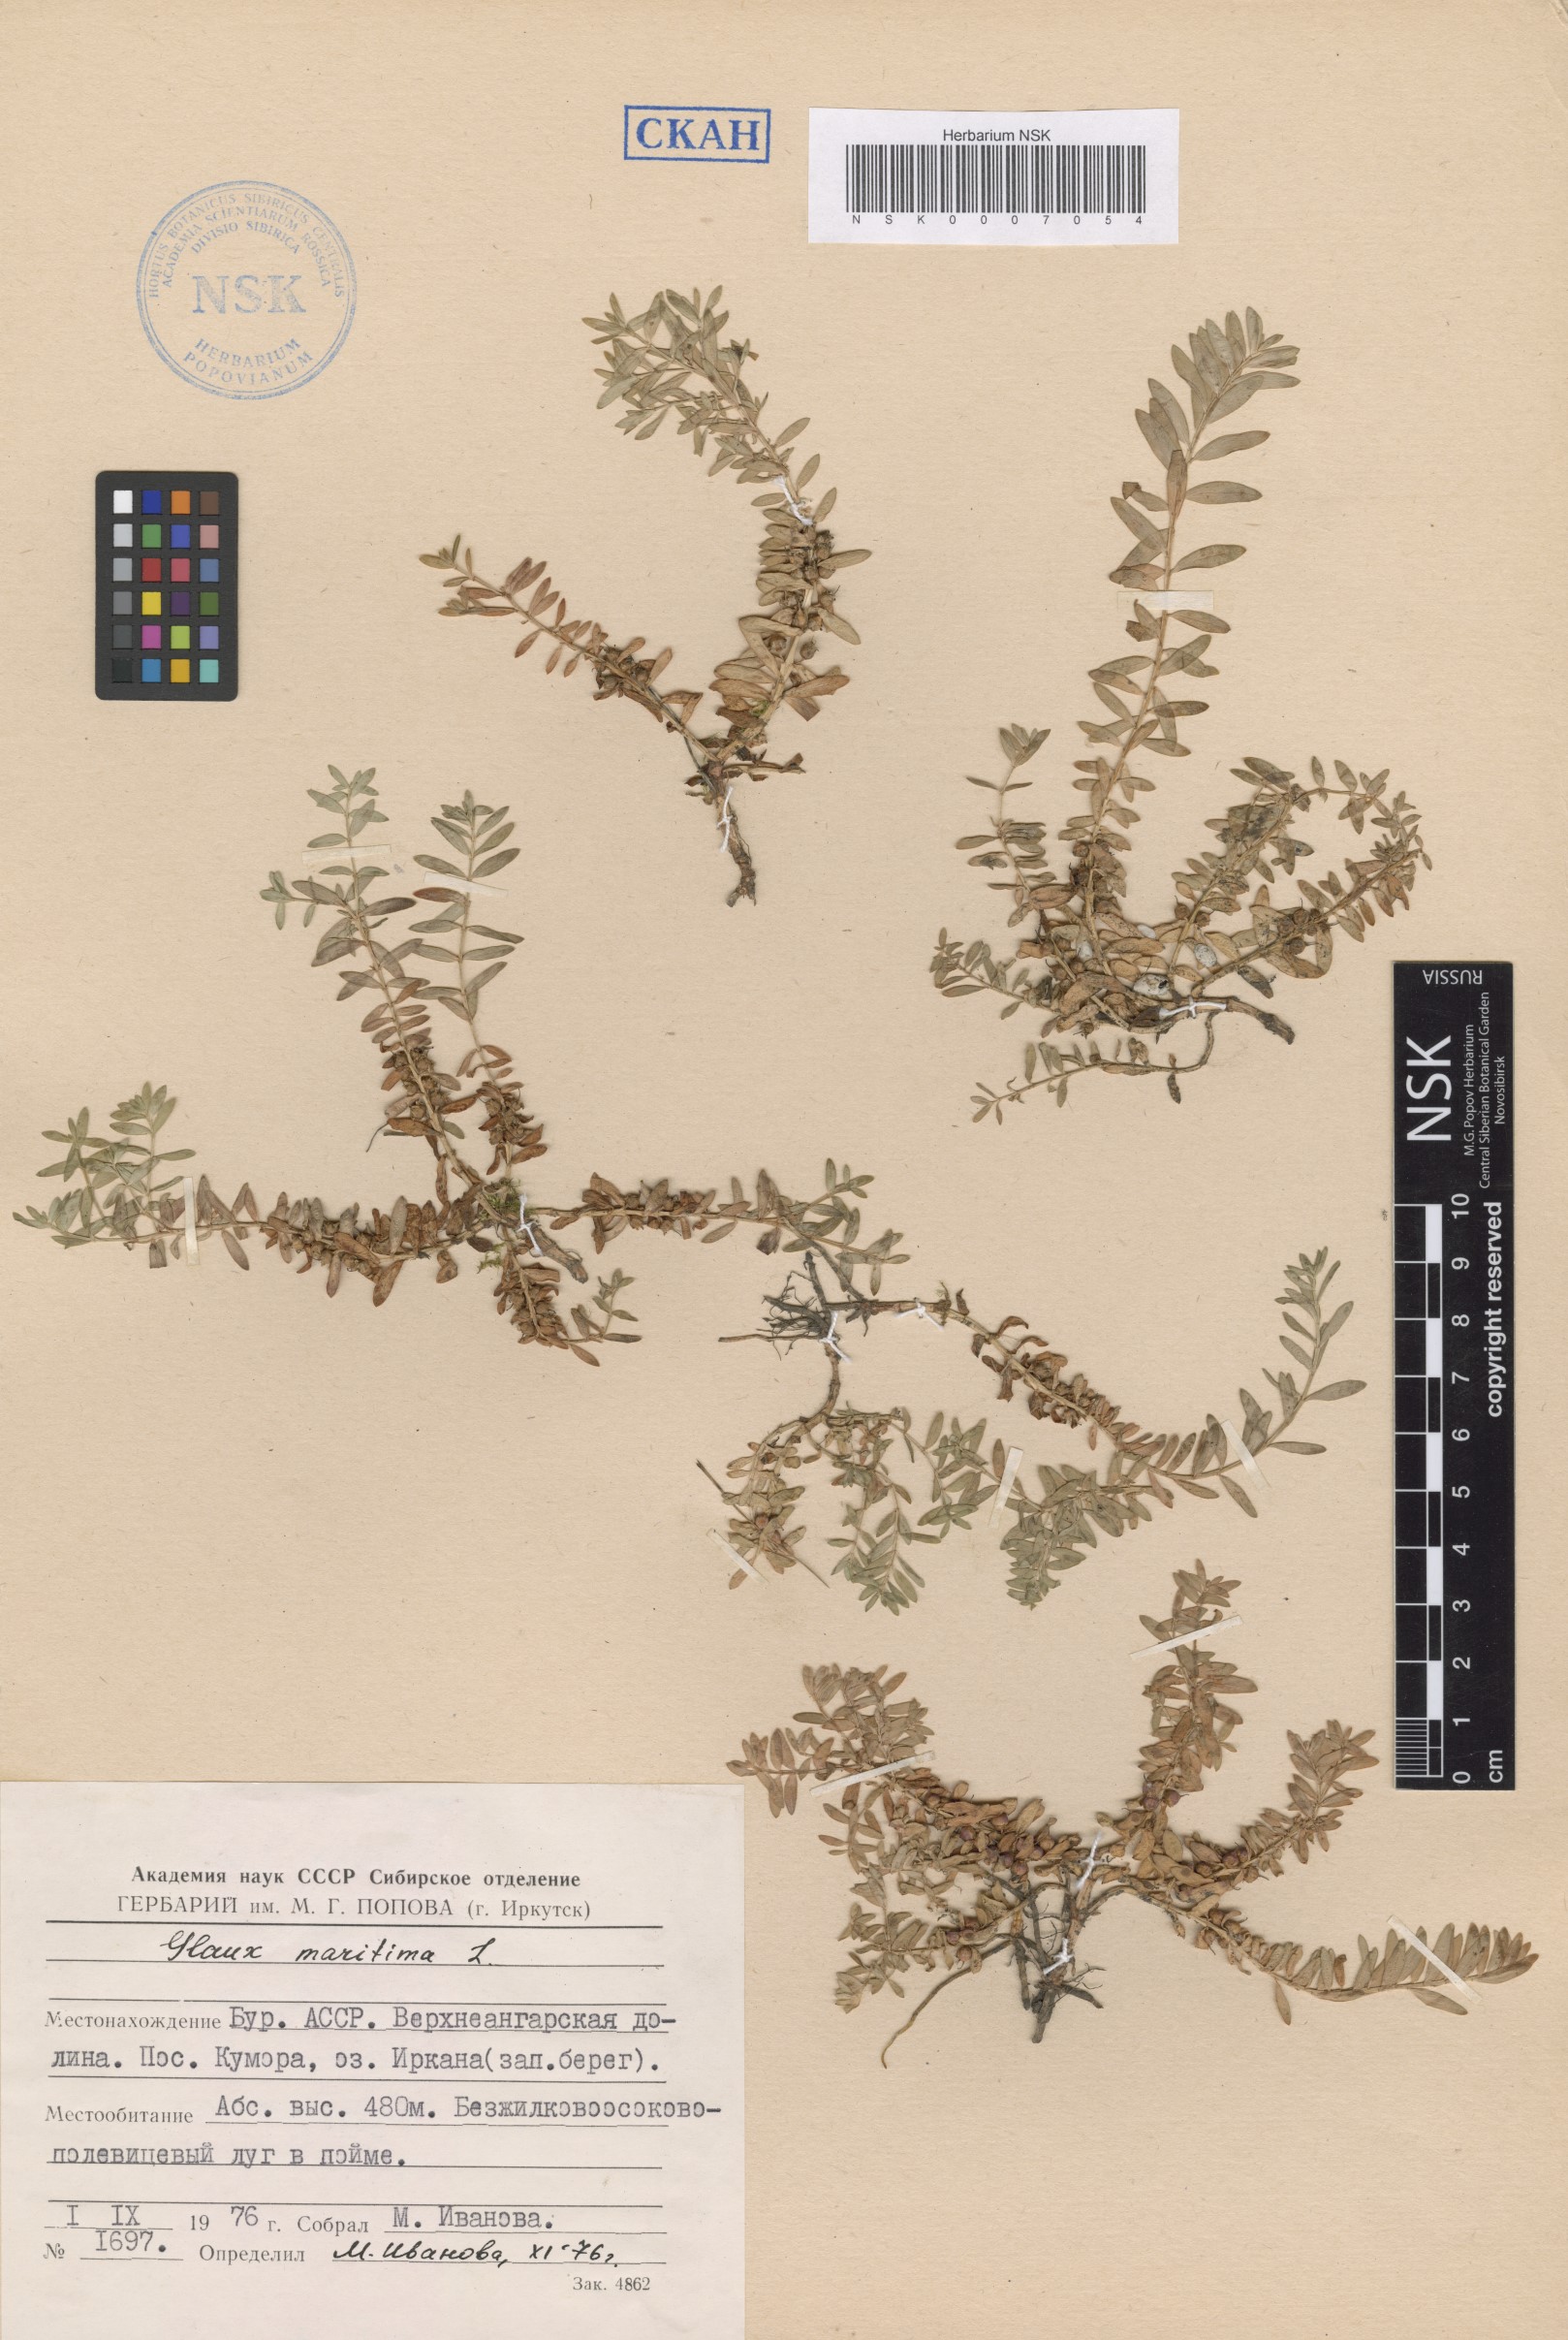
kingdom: Plantae
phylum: Tracheophyta
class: Magnoliopsida
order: Ericales
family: Primulaceae
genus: Lysimachia
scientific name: Lysimachia maritima
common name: Sea milkwort
